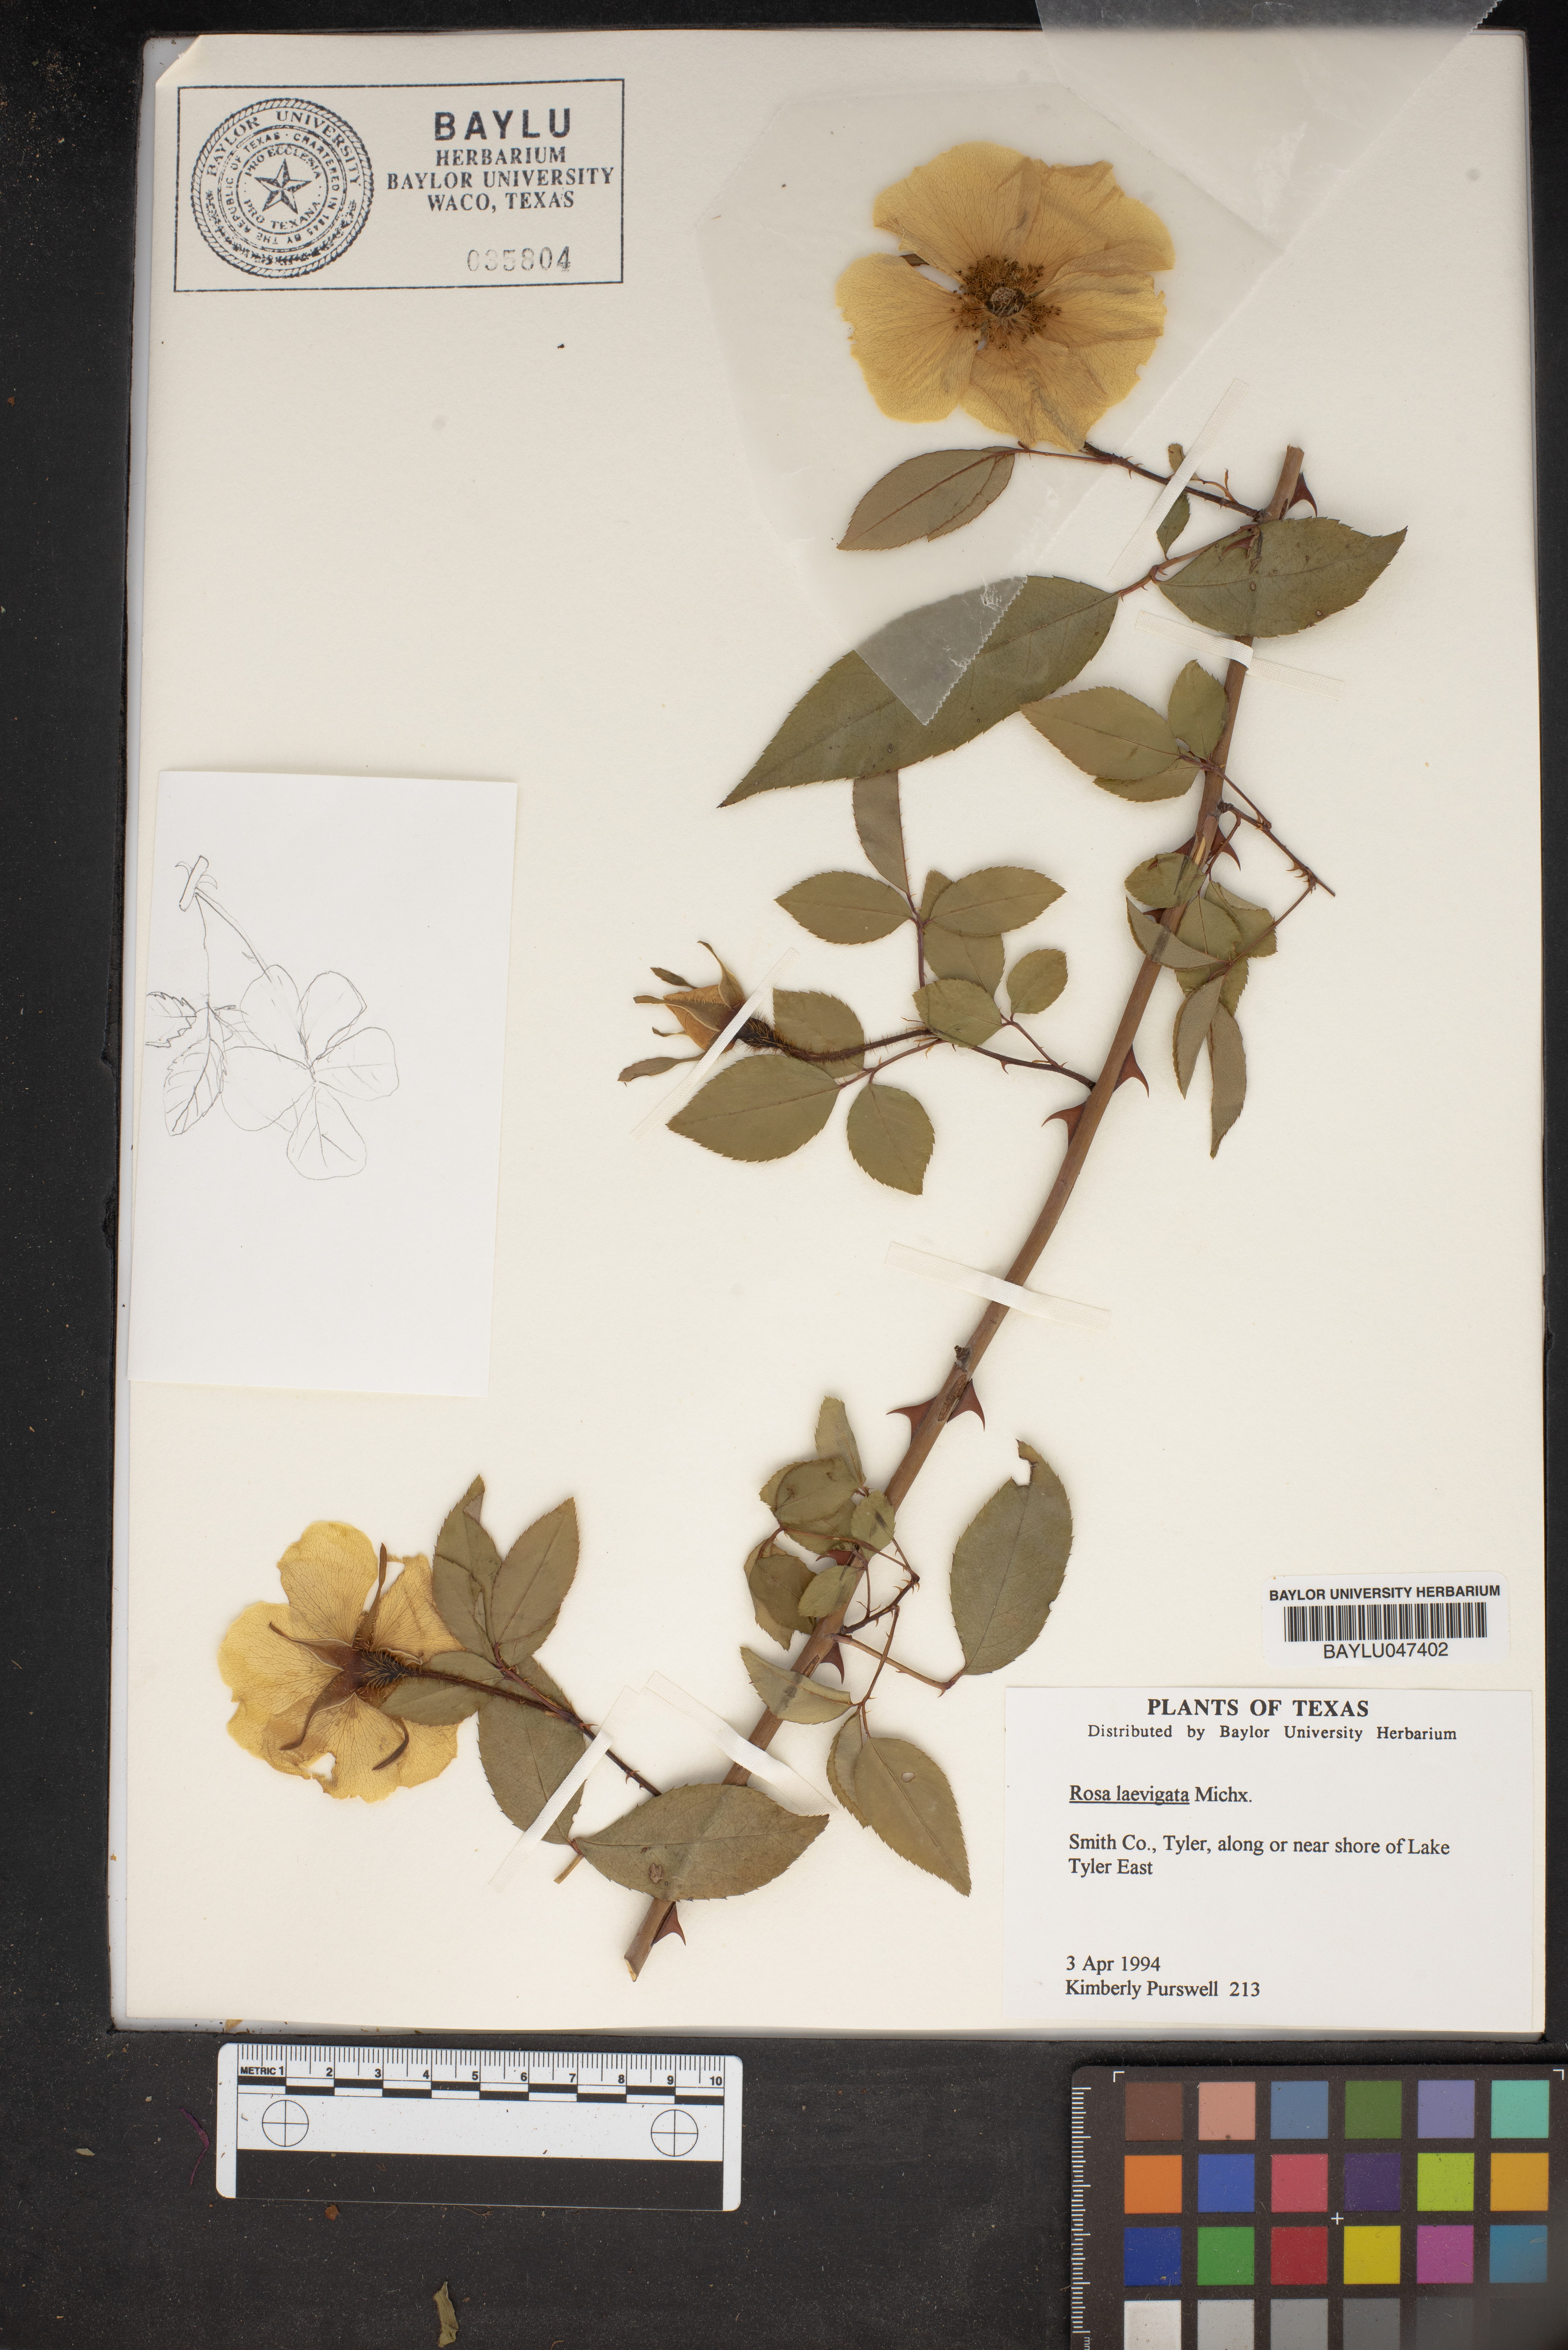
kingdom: Plantae
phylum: Tracheophyta
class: Magnoliopsida
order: Rosales
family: Rosaceae
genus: Rosa
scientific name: Rosa laevigata
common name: Cherokee rose
